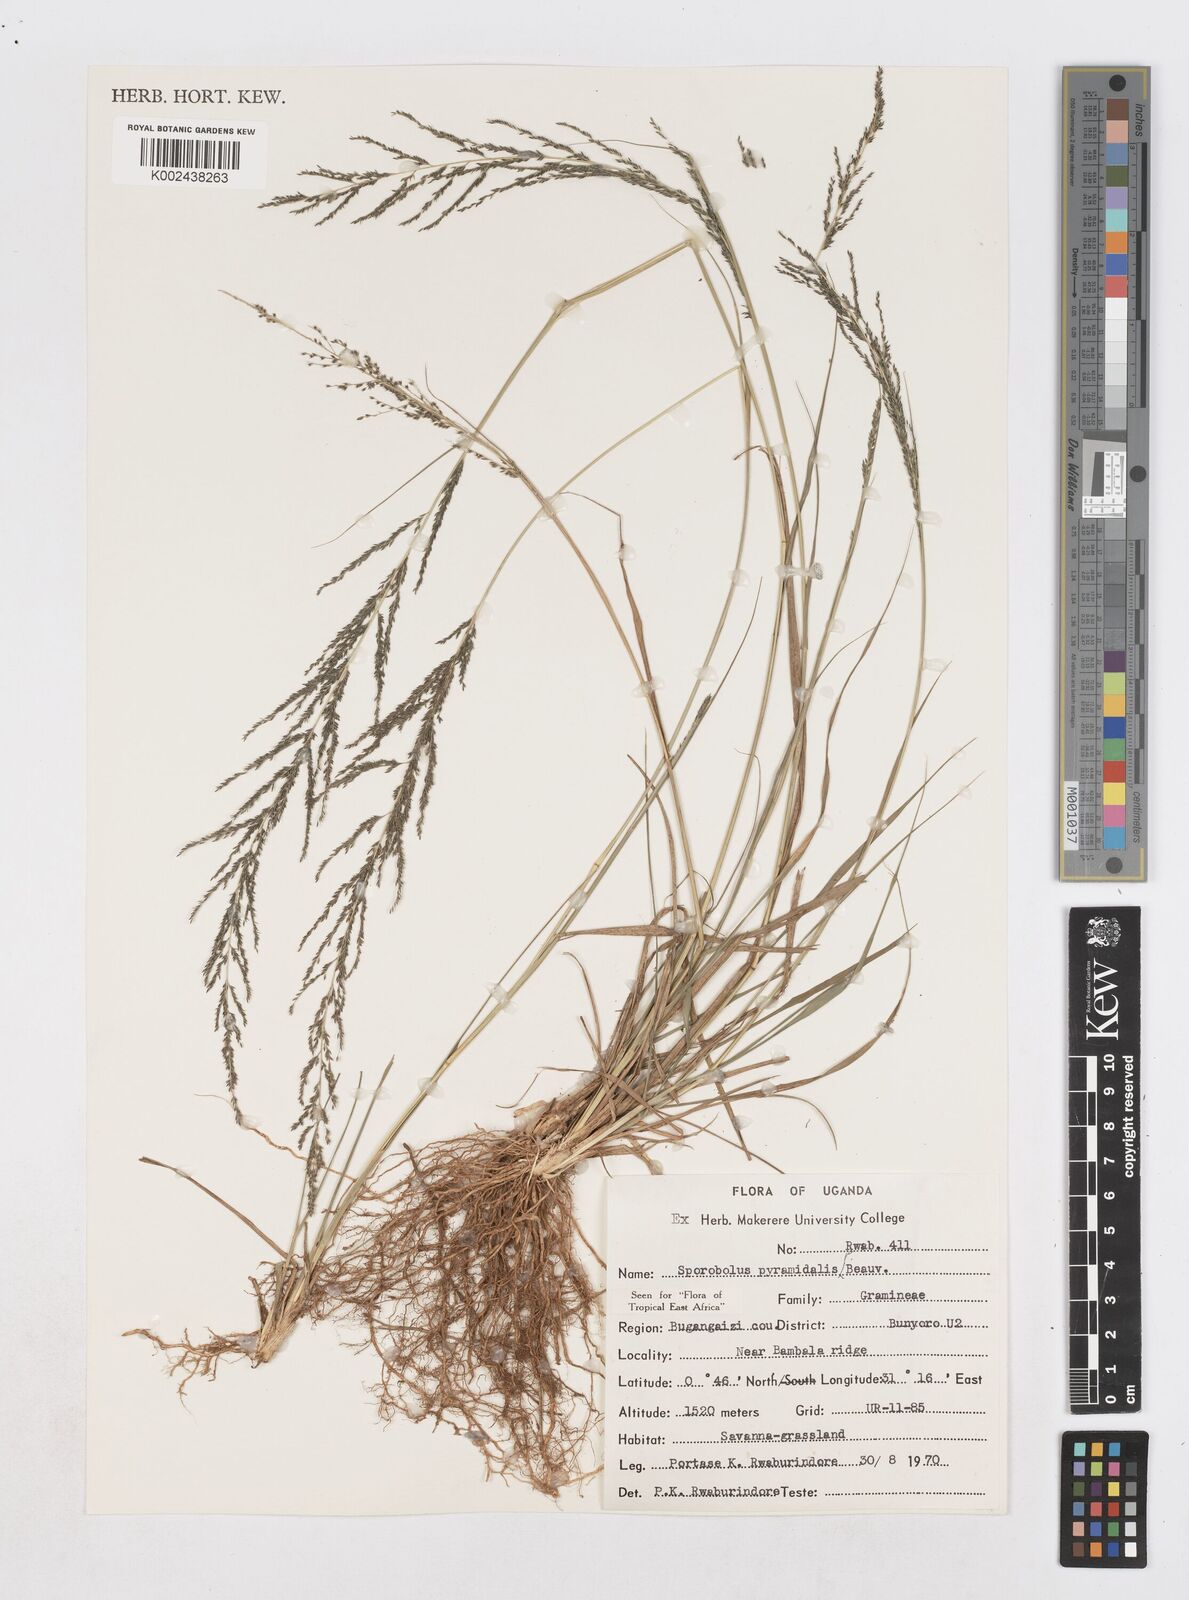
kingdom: Plantae
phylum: Tracheophyta
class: Liliopsida
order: Poales
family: Poaceae
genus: Sporobolus
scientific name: Sporobolus pyramidalis
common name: West indian dropseed
